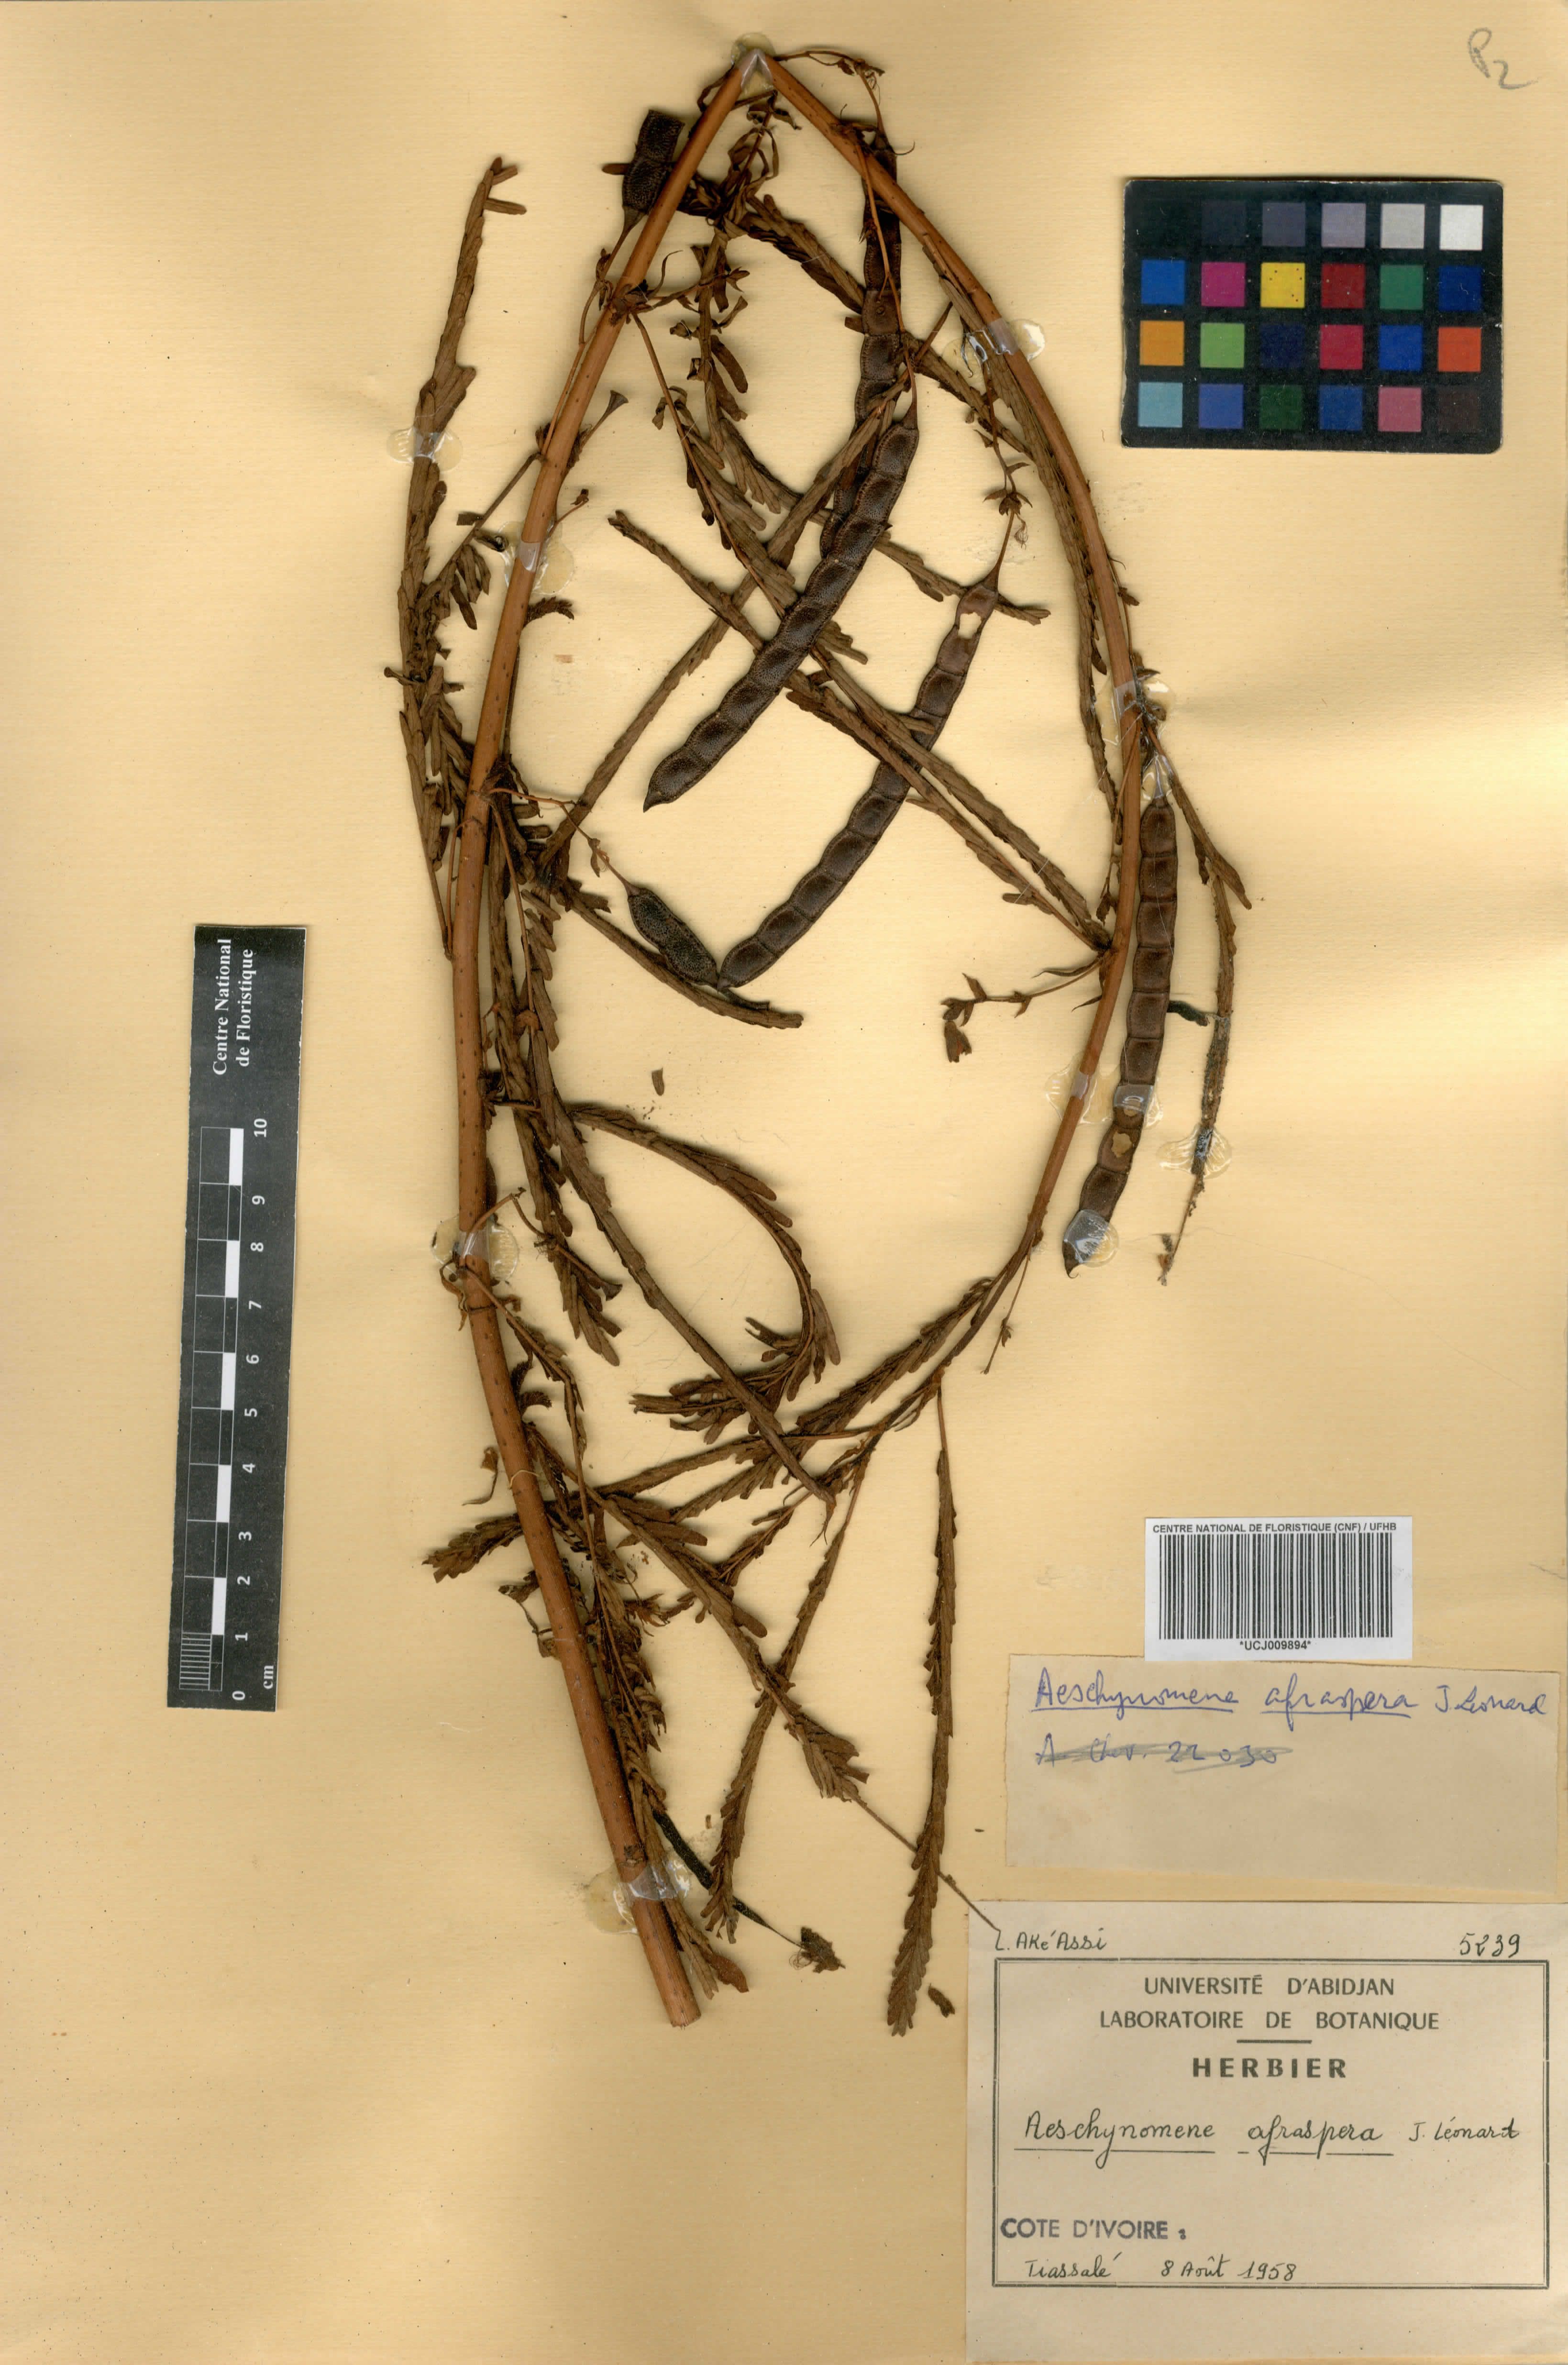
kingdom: Plantae
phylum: Tracheophyta
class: Magnoliopsida
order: Fabales
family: Fabaceae
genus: Aeschynomene
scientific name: Aeschynomene afraspera
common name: Sola pith
